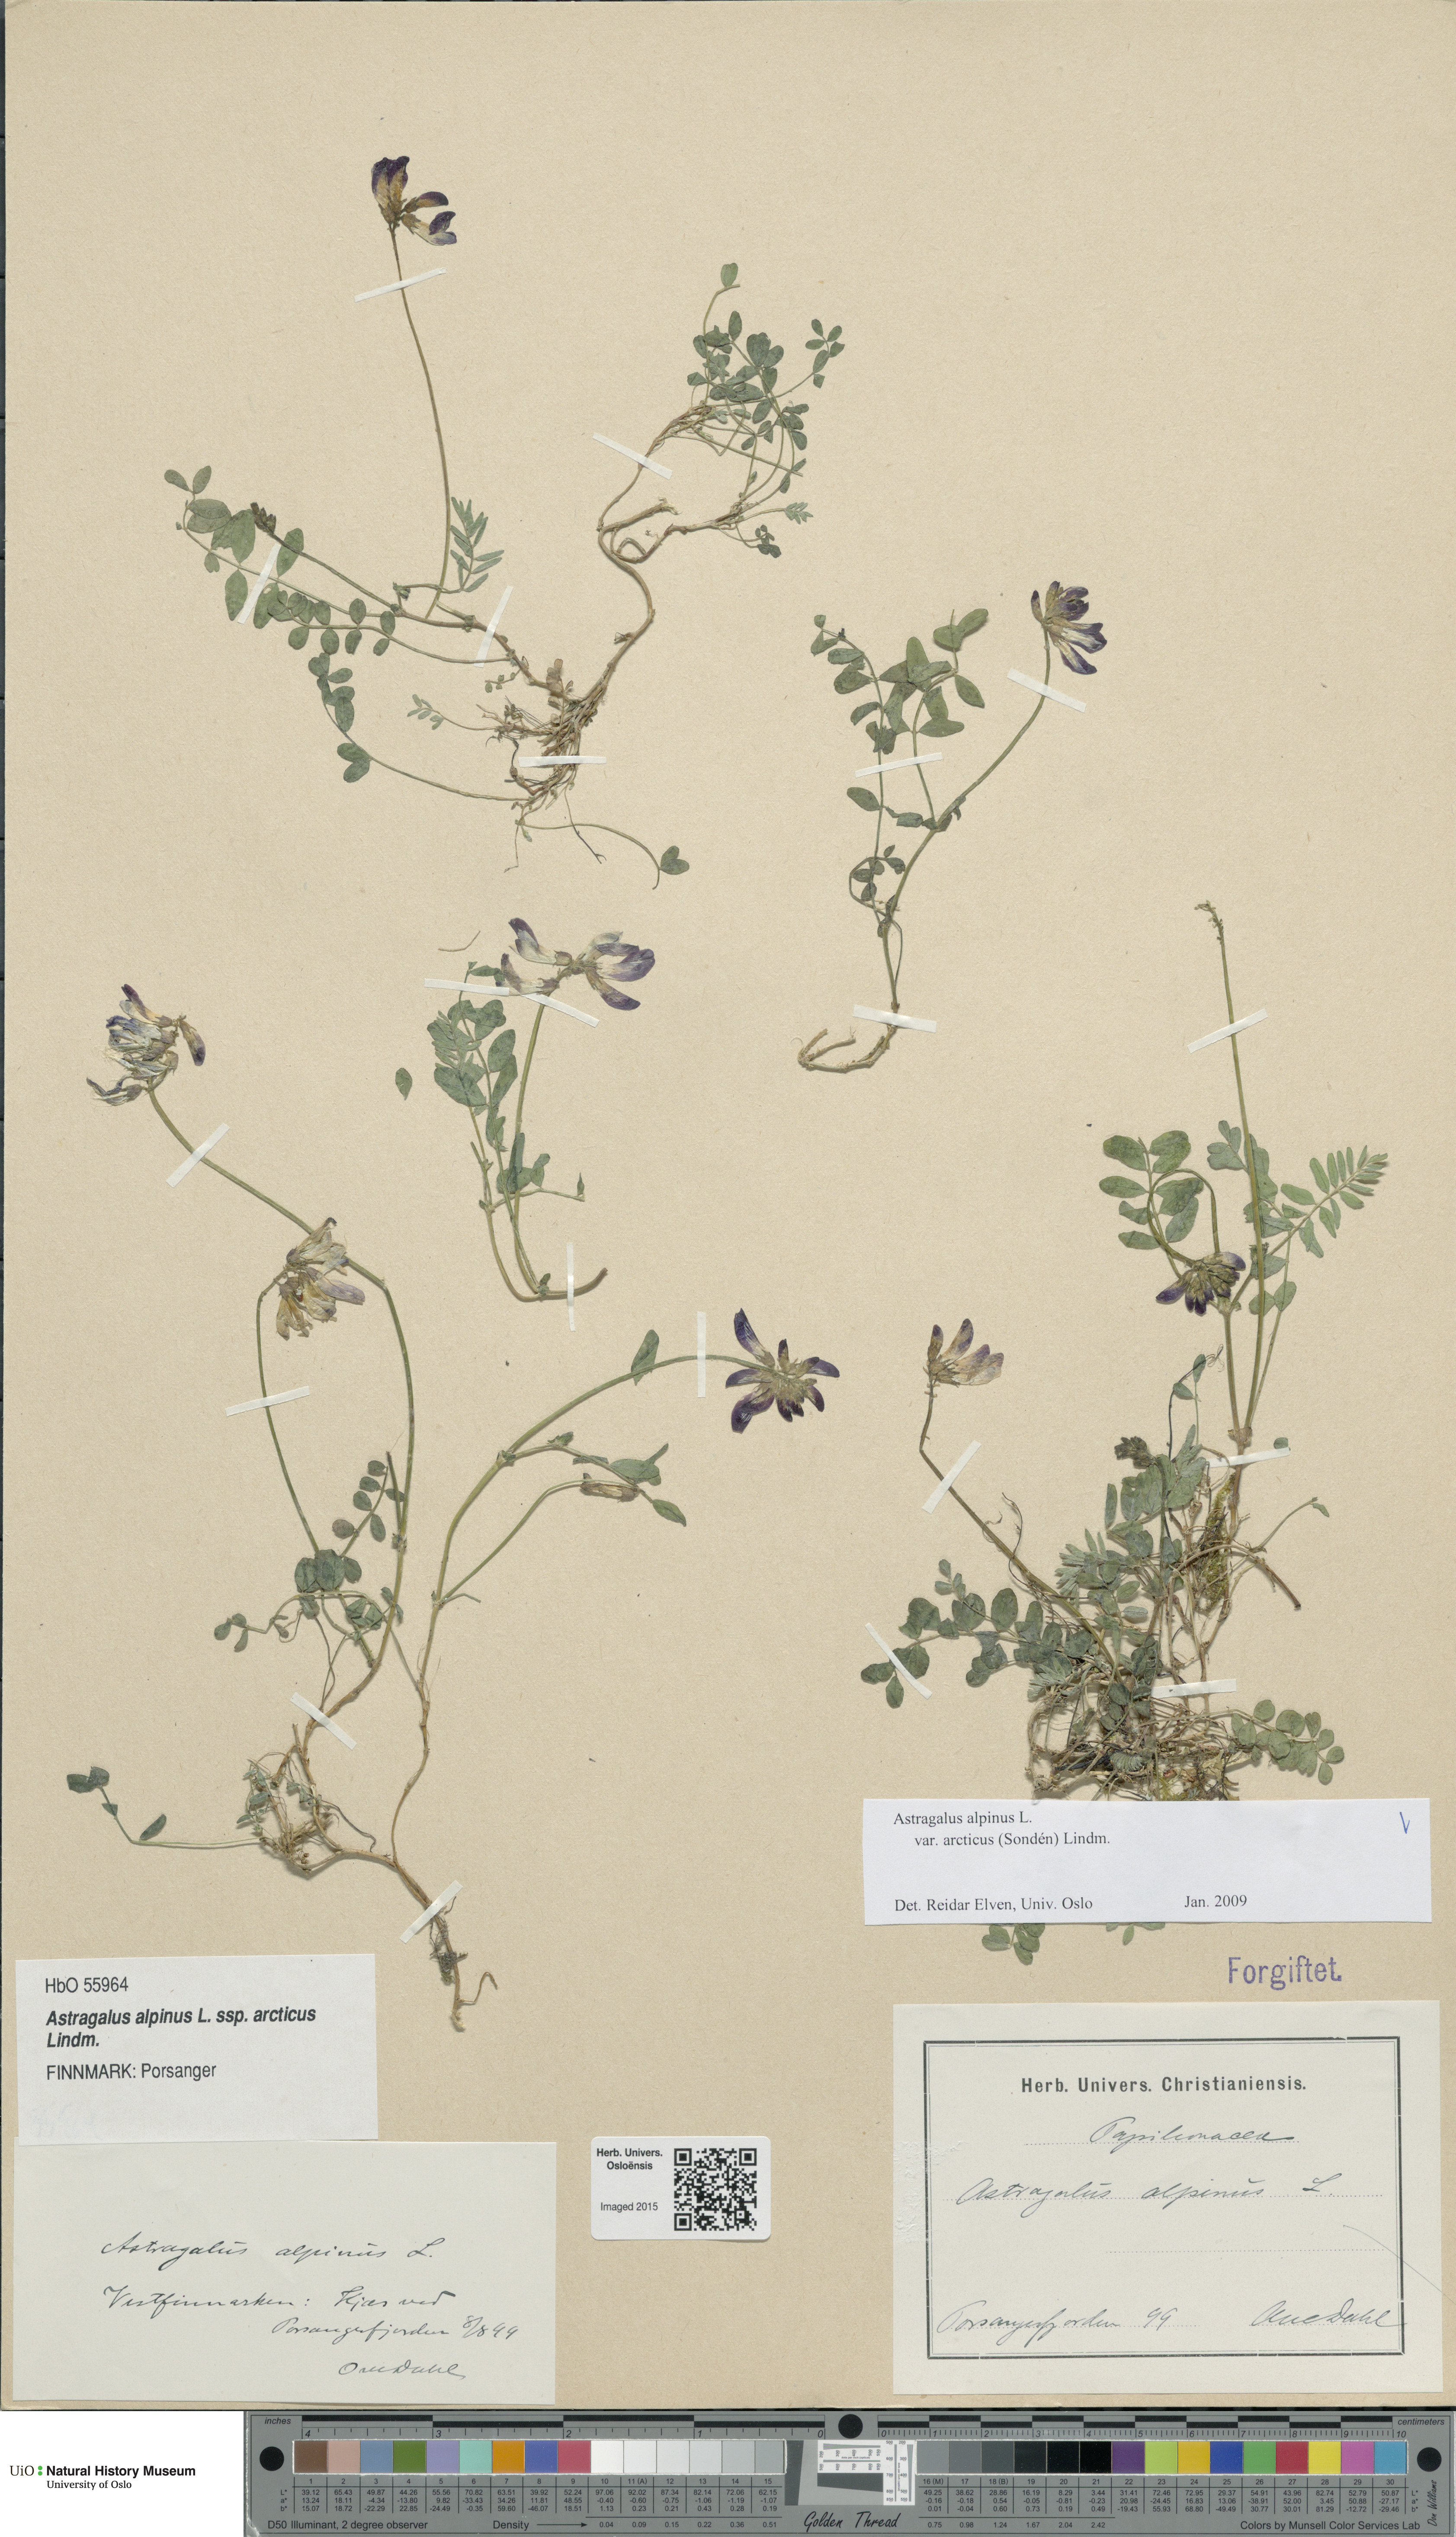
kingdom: Plantae
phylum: Tracheophyta
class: Magnoliopsida
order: Fabales
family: Fabaceae
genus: Astragalus
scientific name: Astragalus norvegicus
